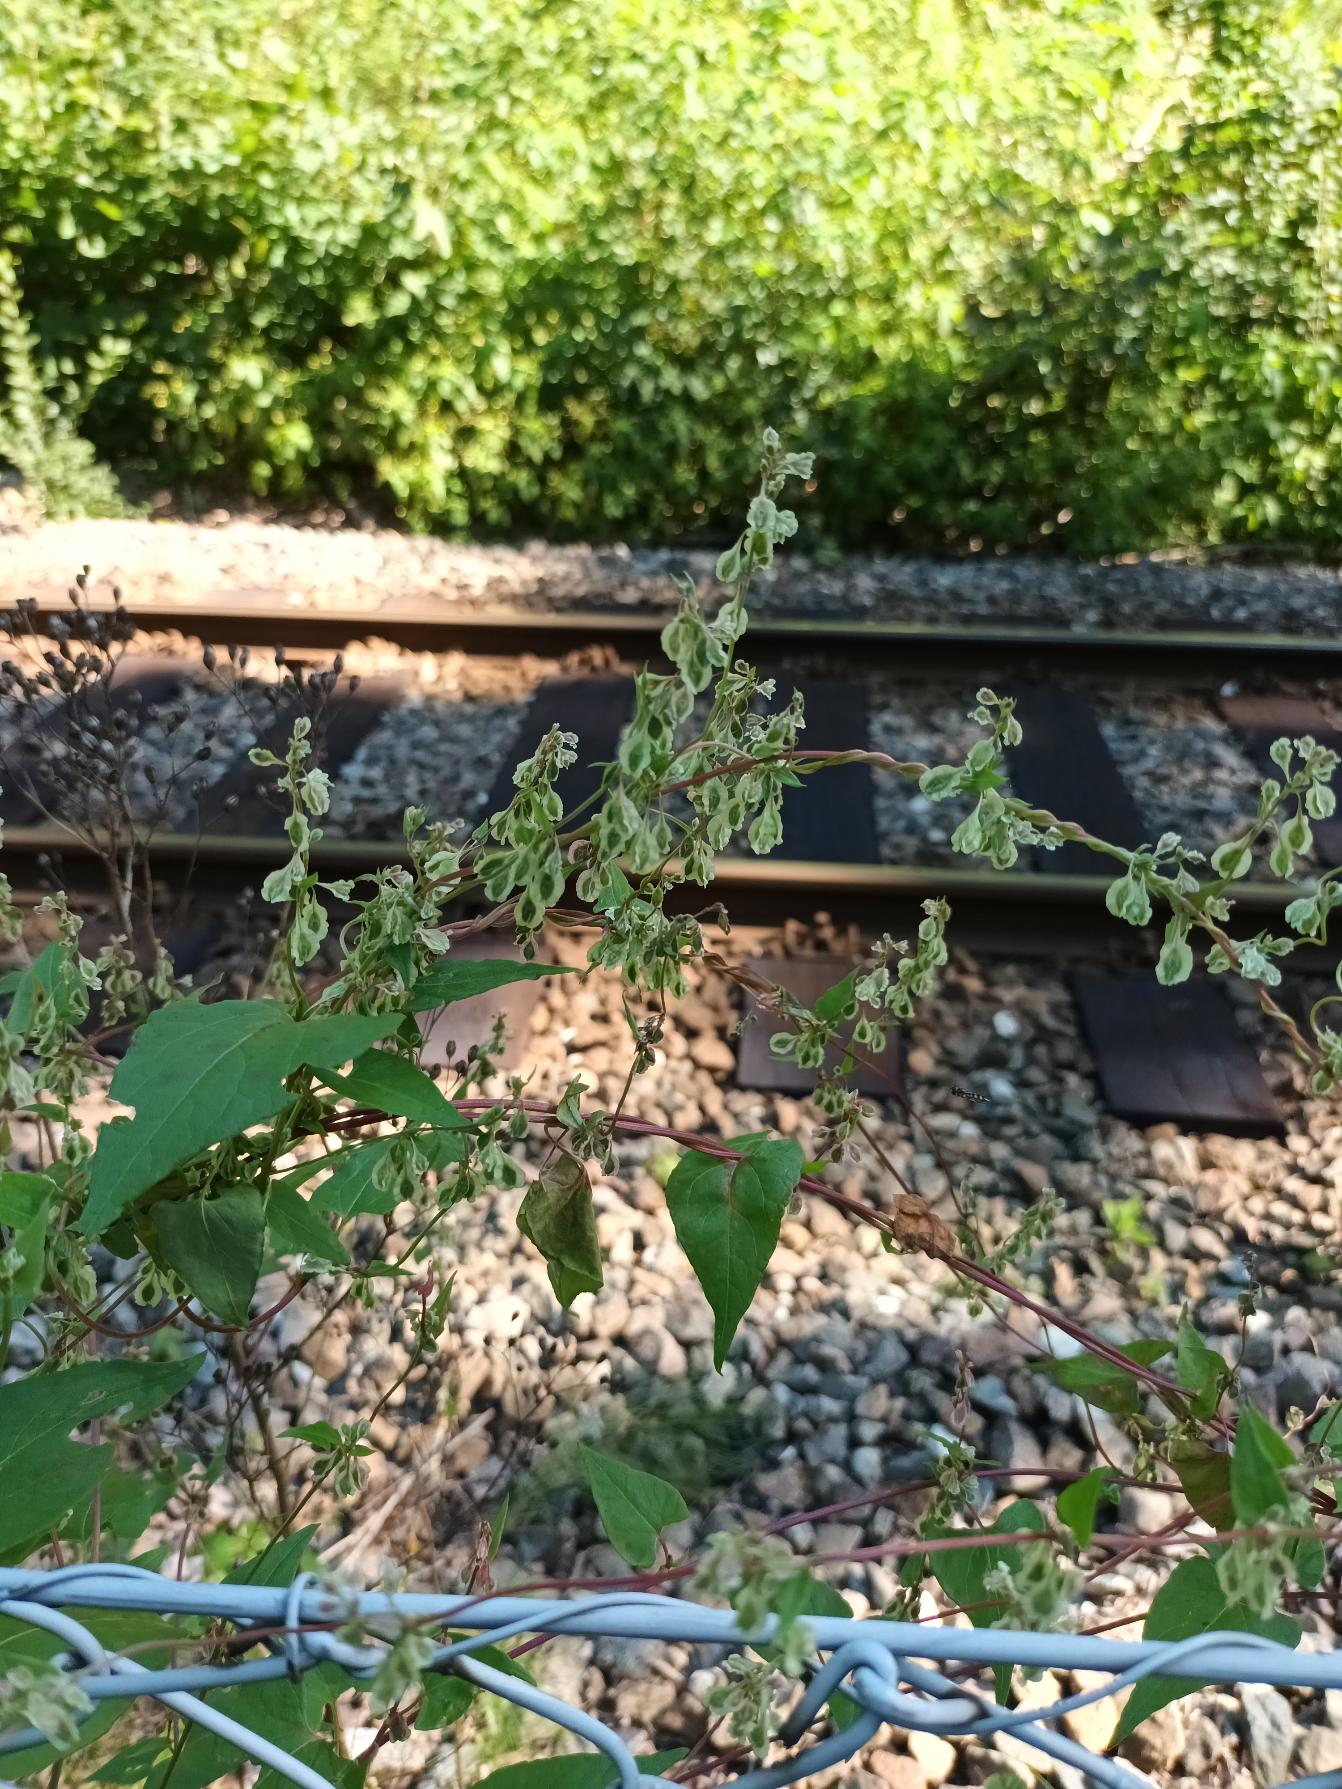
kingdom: Plantae
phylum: Tracheophyta
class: Magnoliopsida
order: Caryophyllales
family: Polygonaceae
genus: Fallopia
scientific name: Fallopia dumetorum
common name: Vinge-pileurt
